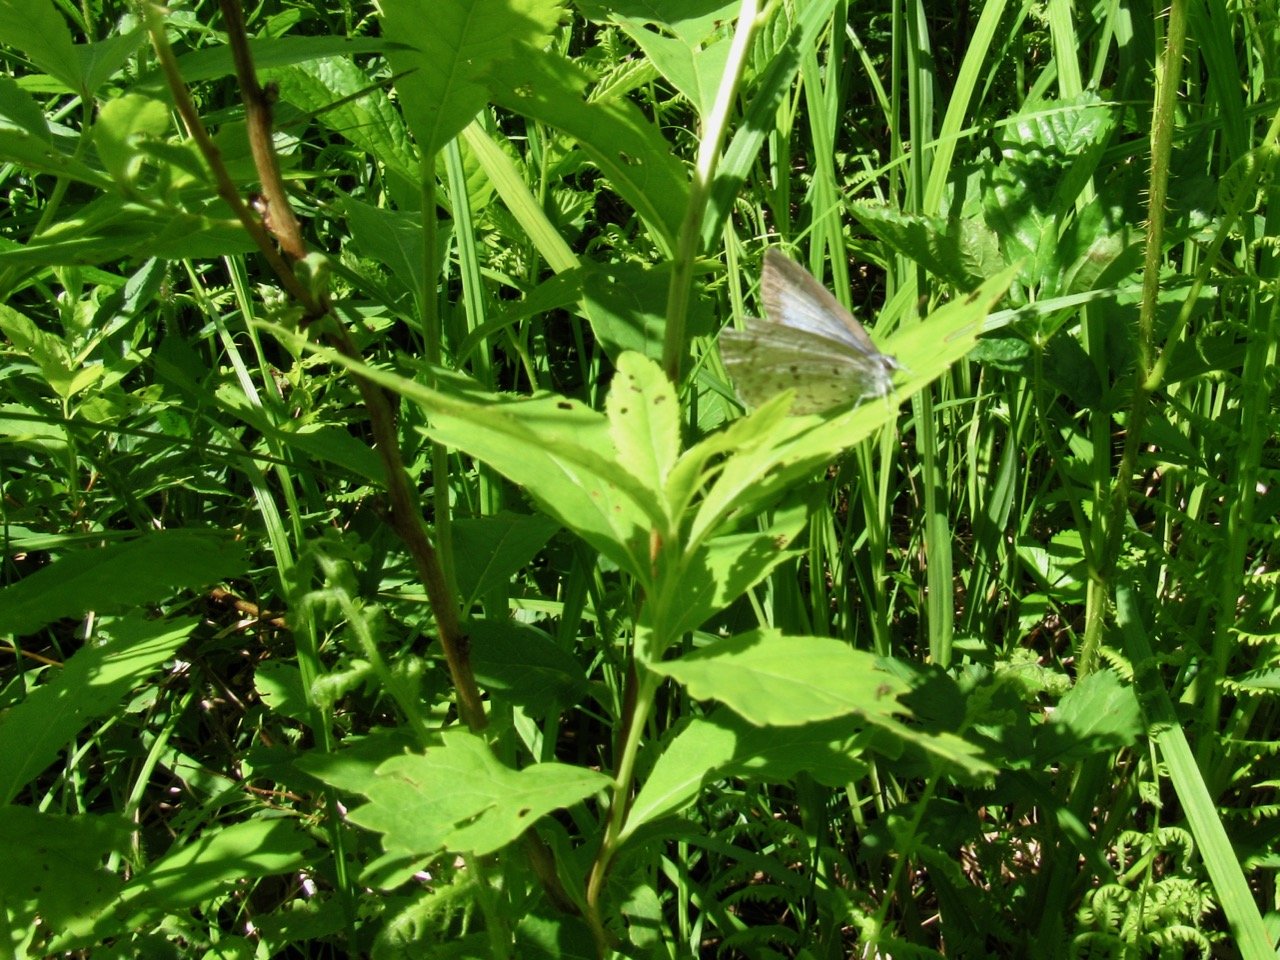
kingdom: Animalia
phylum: Arthropoda
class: Insecta
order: Lepidoptera
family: Lycaenidae
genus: Celastrina
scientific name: Celastrina
